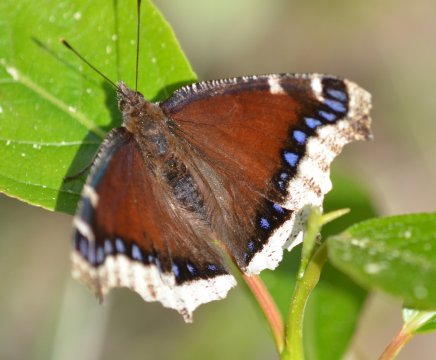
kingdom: Animalia
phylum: Arthropoda
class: Insecta
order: Lepidoptera
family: Nymphalidae
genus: Nymphalis
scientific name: Nymphalis antiopa
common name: Mourning Cloak
